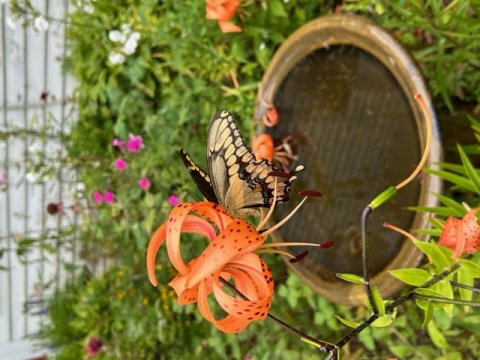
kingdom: Animalia
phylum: Arthropoda
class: Insecta
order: Lepidoptera
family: Papilionidae
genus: Papilio
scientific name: Papilio cresphontes
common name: Eastern Giant Swallowtail
